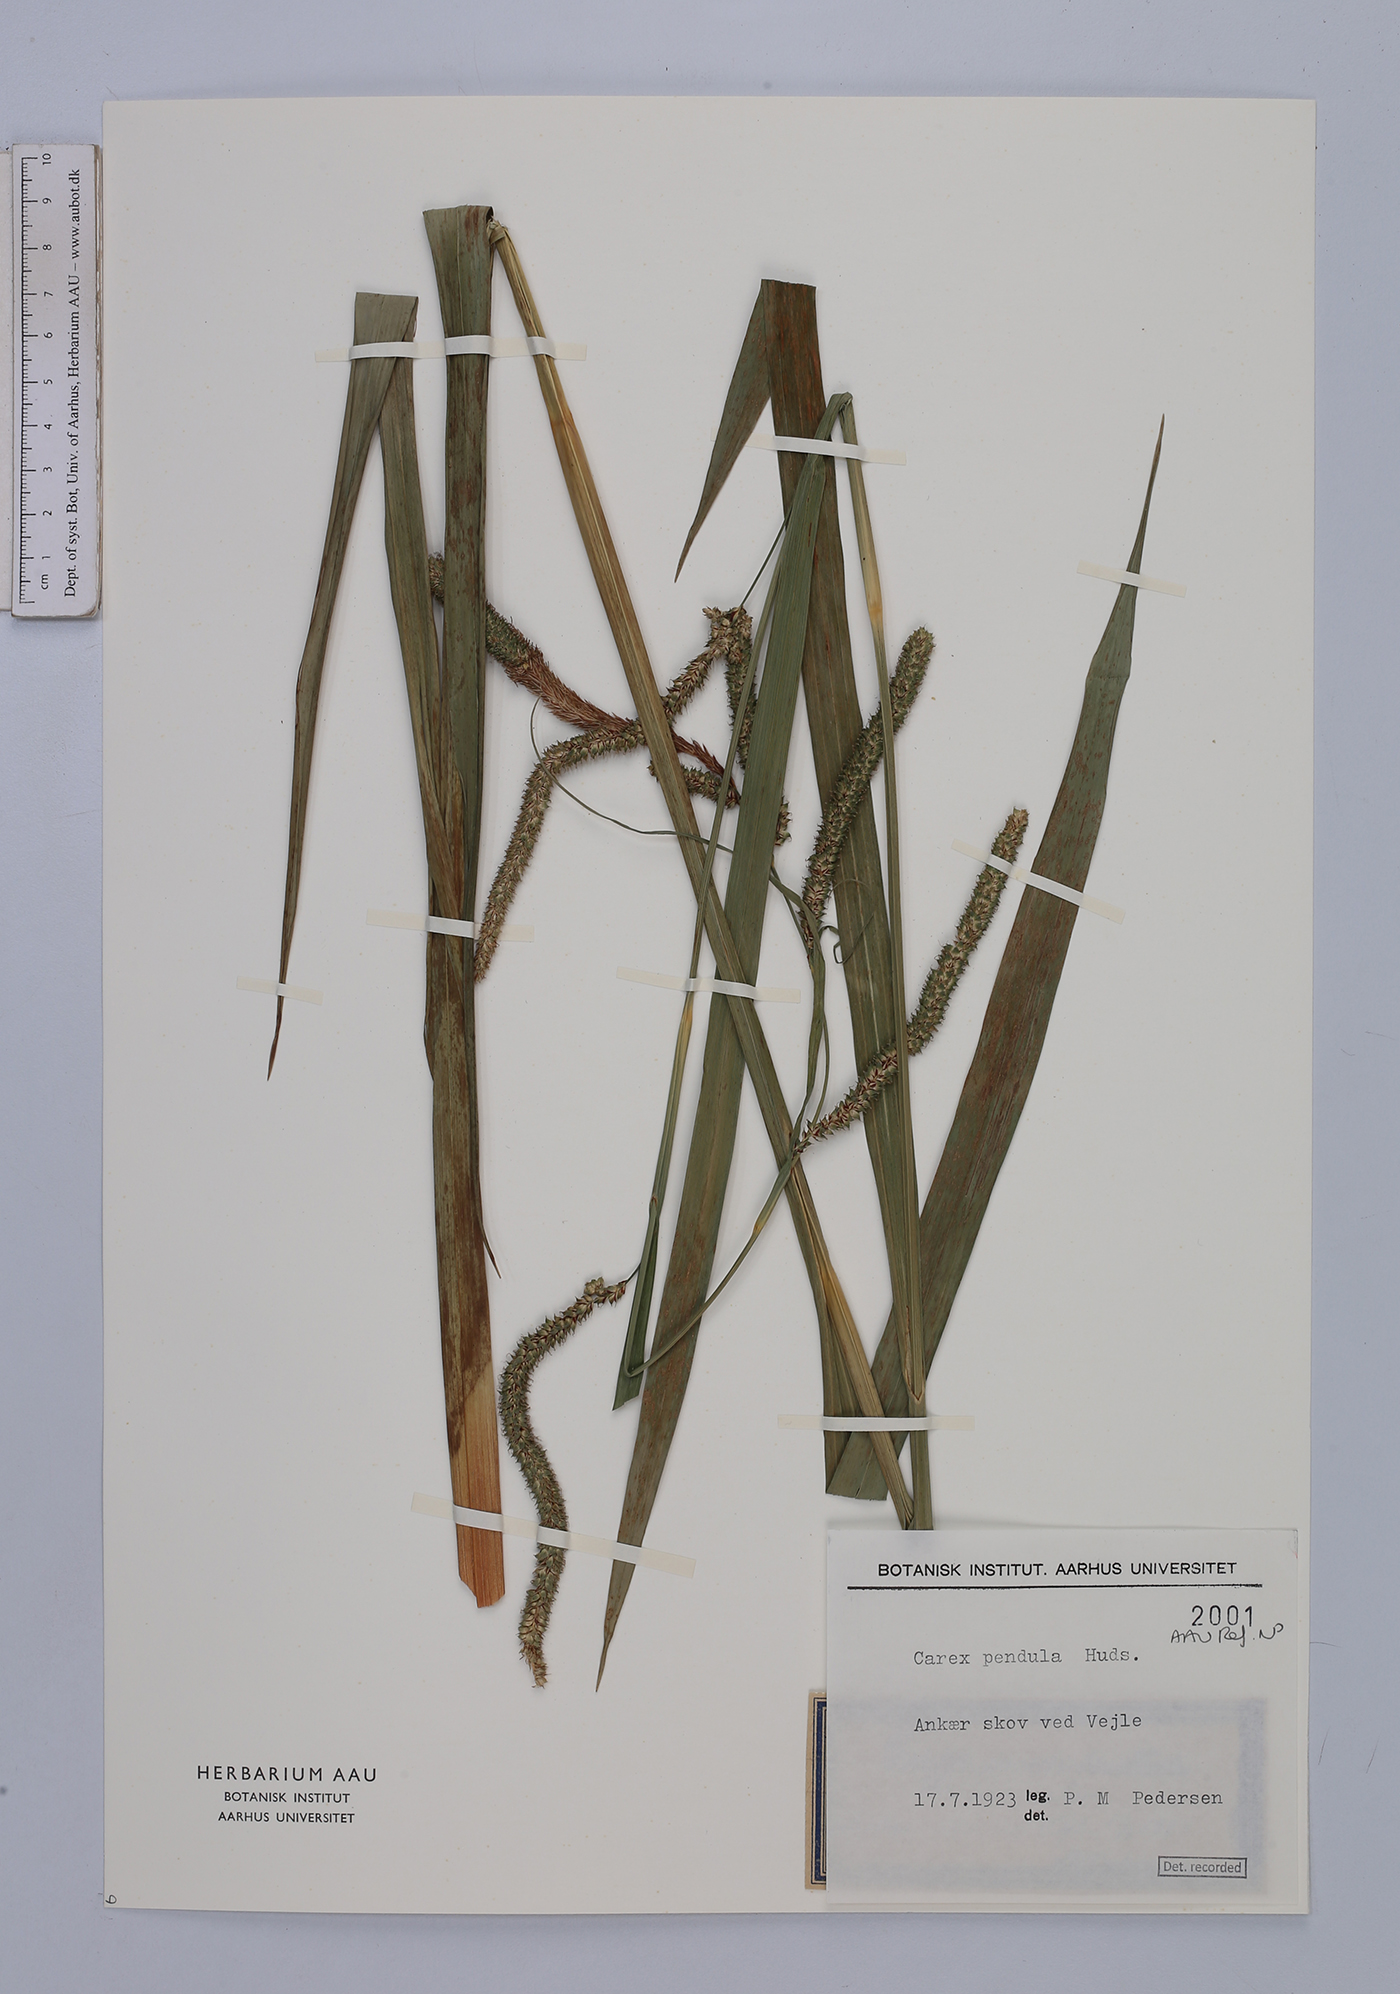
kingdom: Plantae
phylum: Tracheophyta
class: Liliopsida
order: Poales
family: Cyperaceae
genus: Carex
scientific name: Carex pendula
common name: Pendulous sedge
